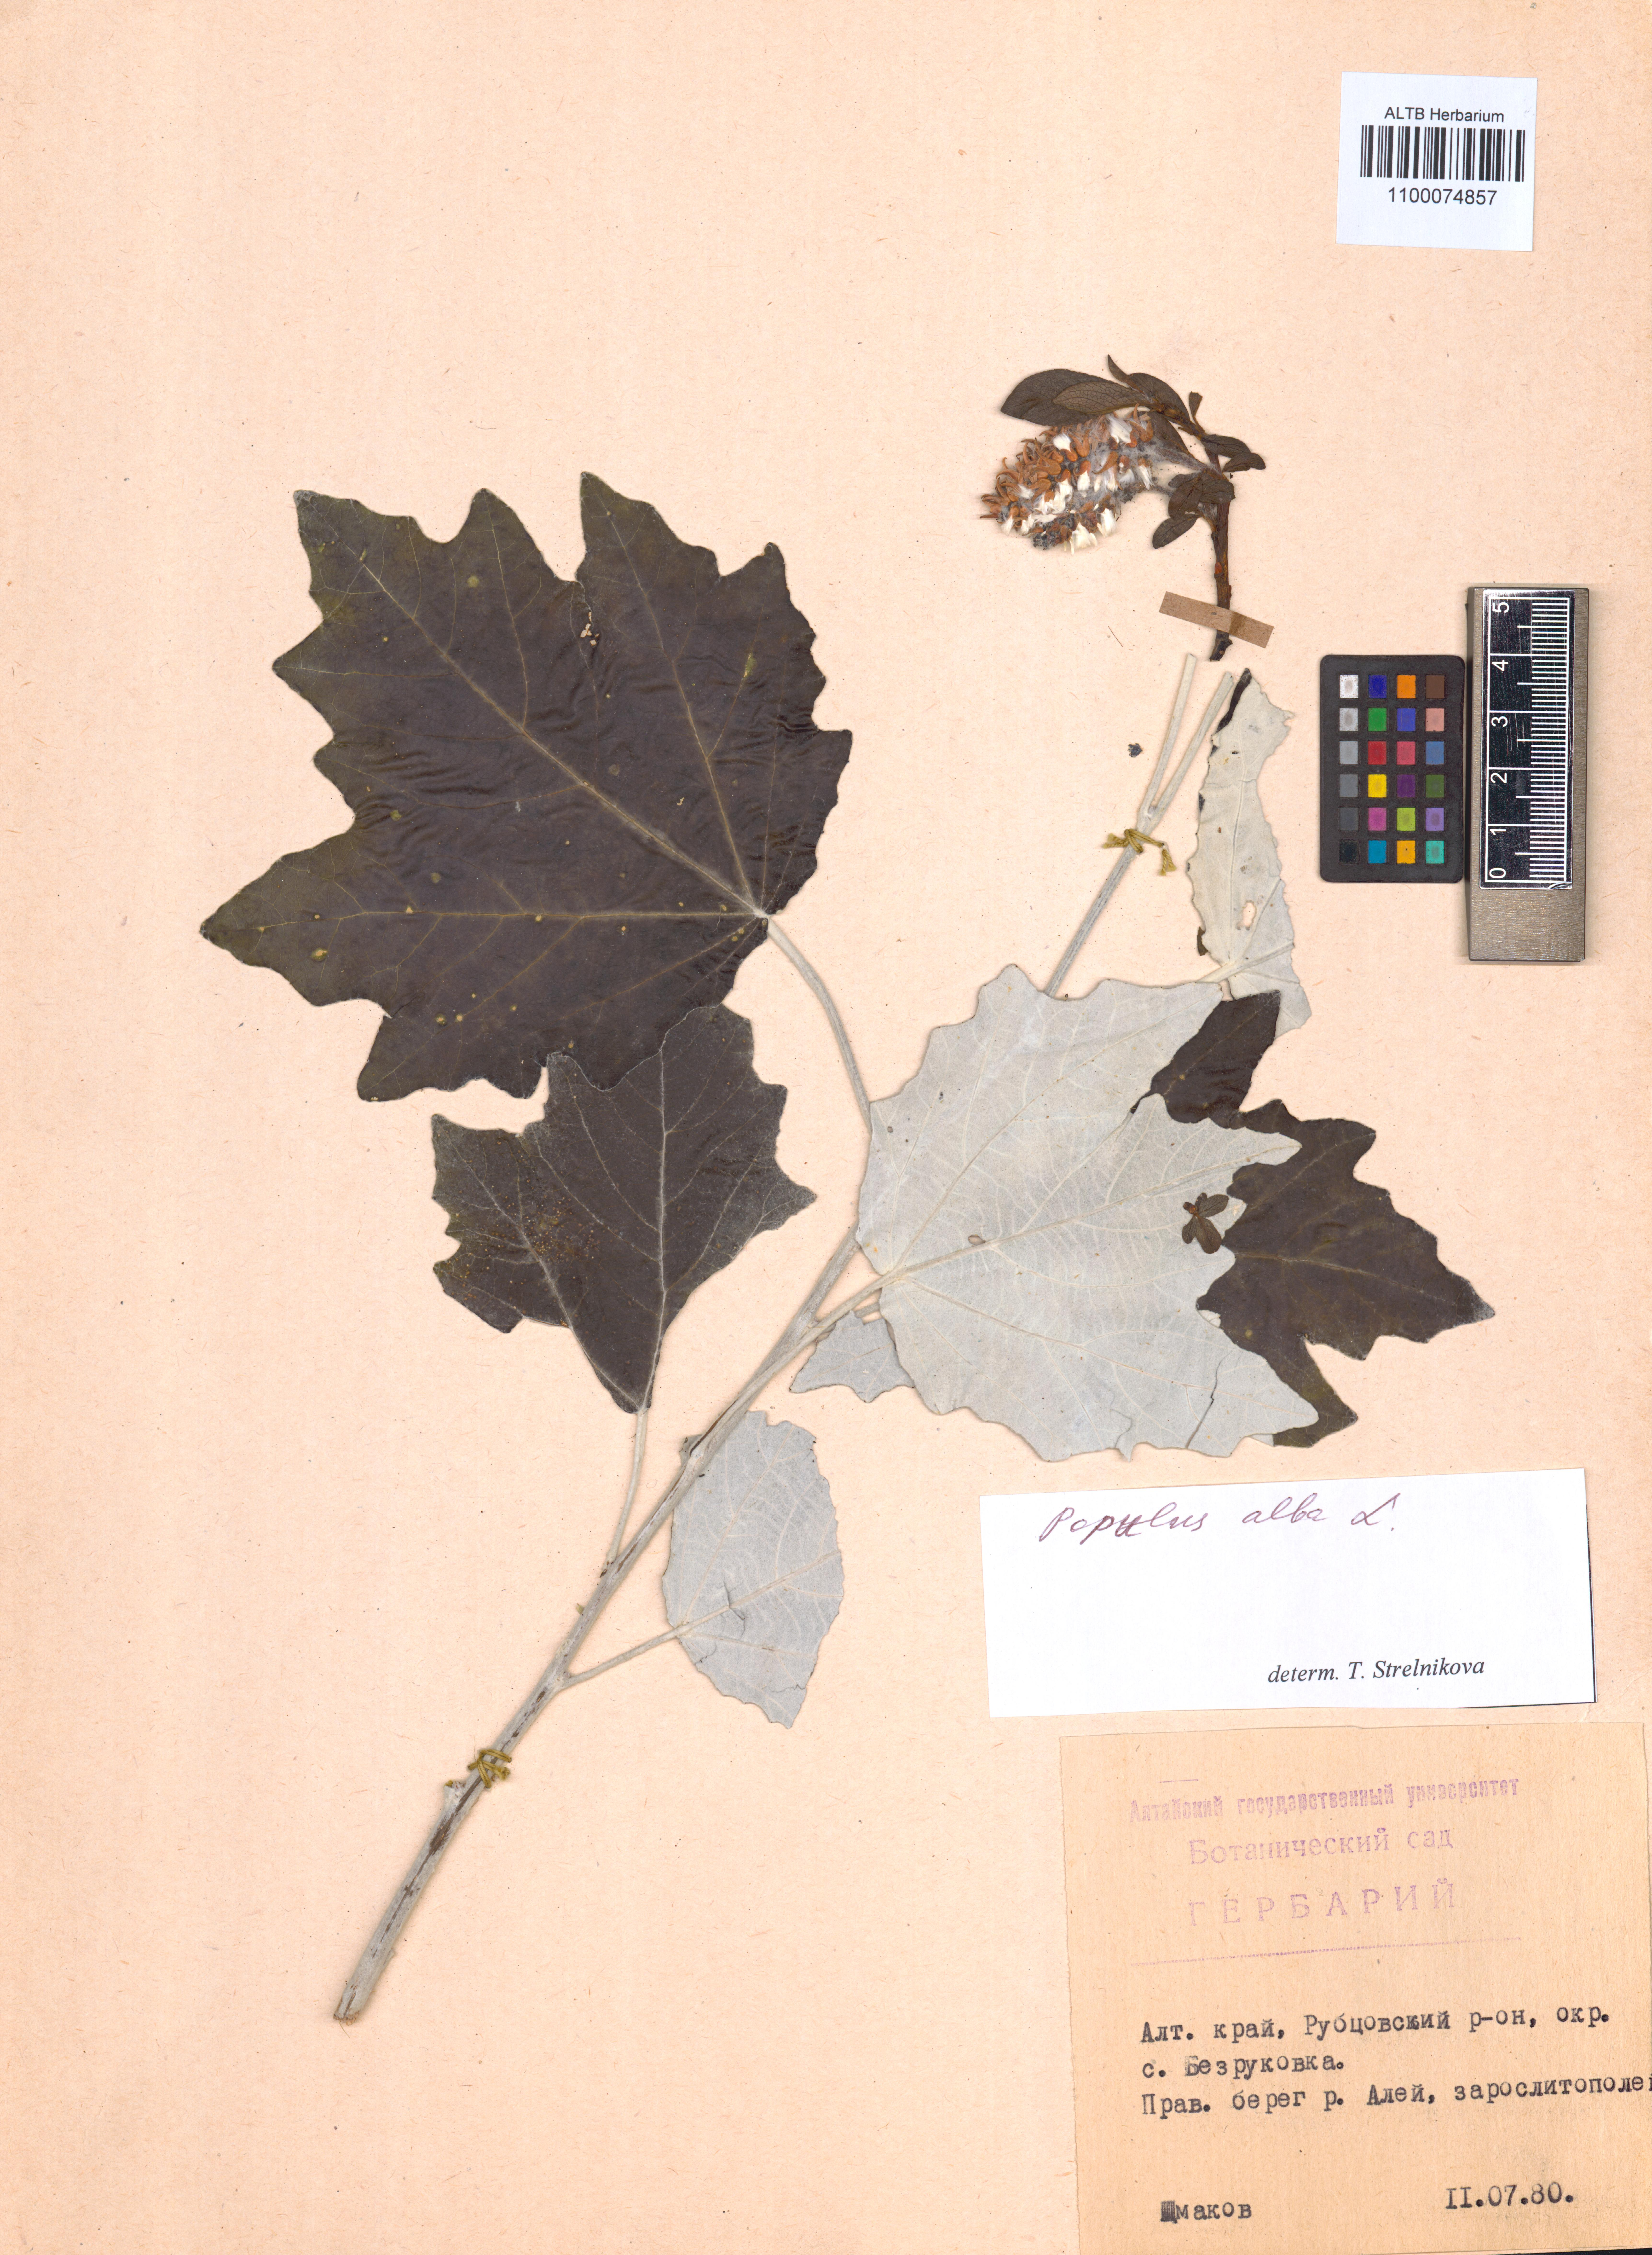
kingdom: Plantae
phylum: Tracheophyta
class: Magnoliopsida
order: Malpighiales
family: Salicaceae
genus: Populus
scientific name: Populus alba
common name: White poplar
